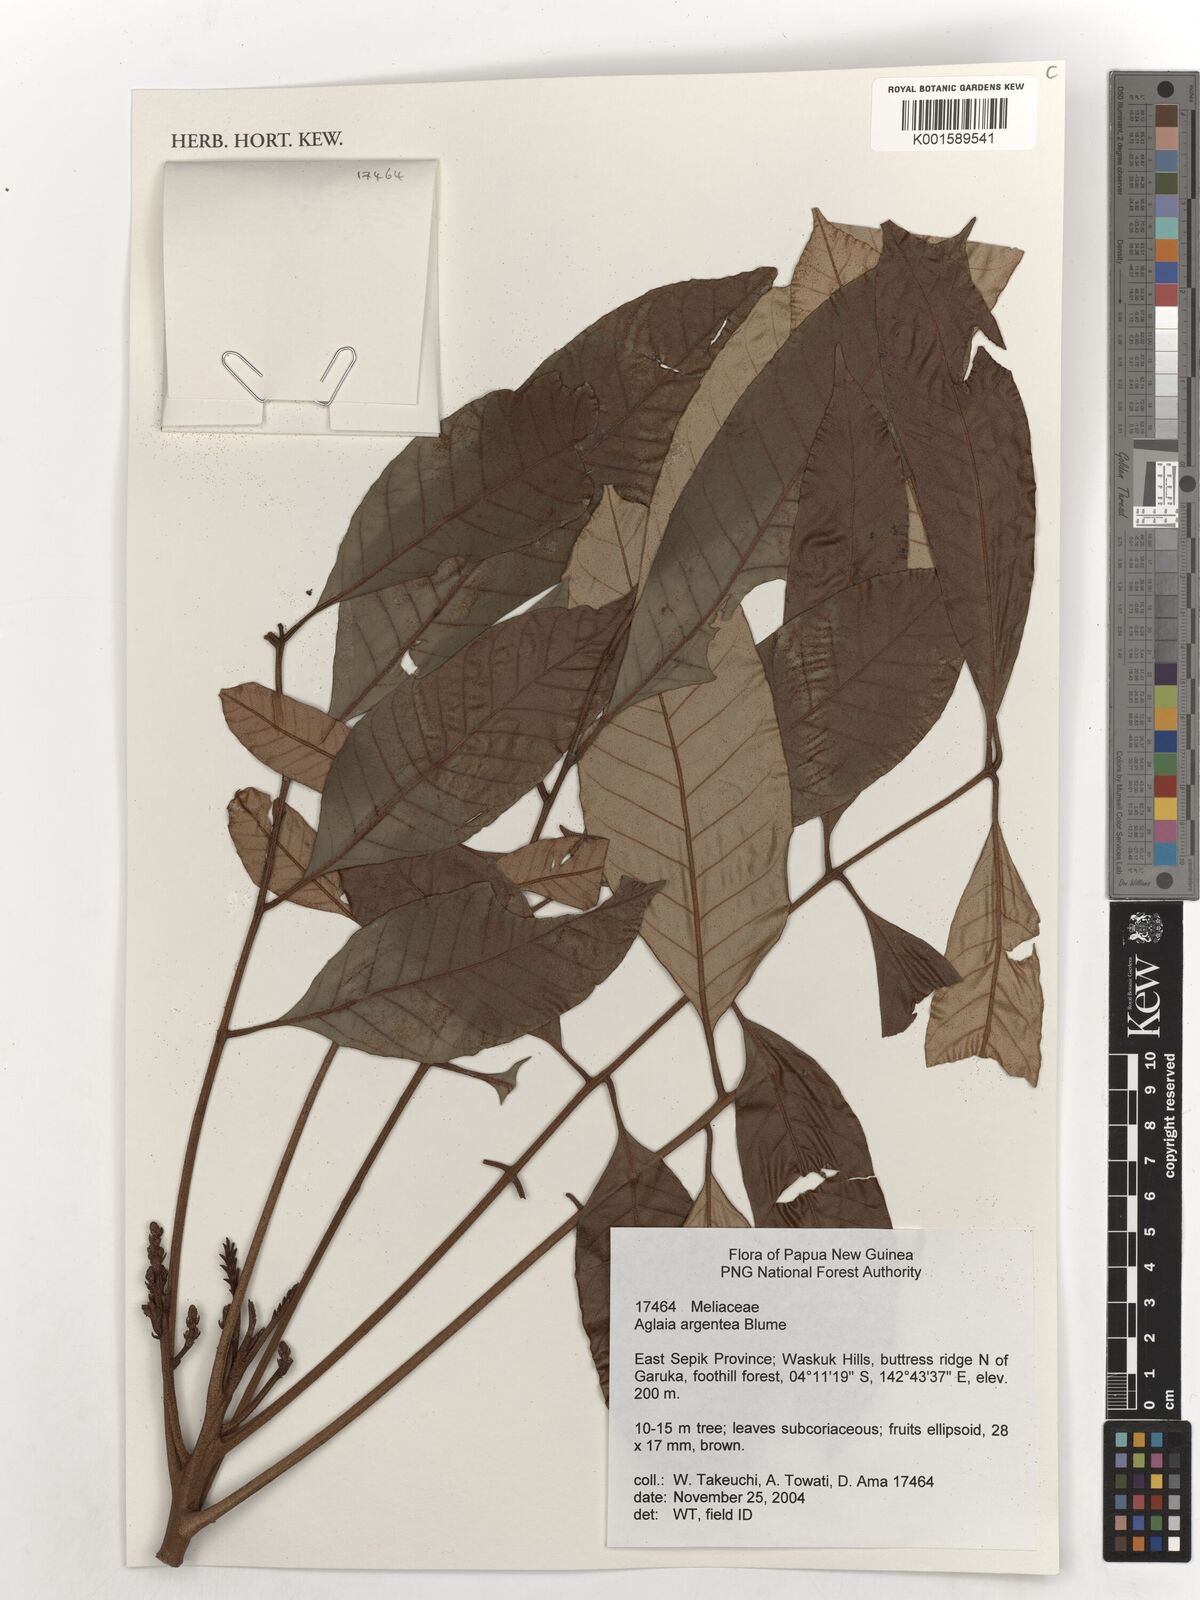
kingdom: Plantae
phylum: Tracheophyta
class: Magnoliopsida
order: Sapindales
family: Meliaceae
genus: Aglaia
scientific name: Aglaia argentea
